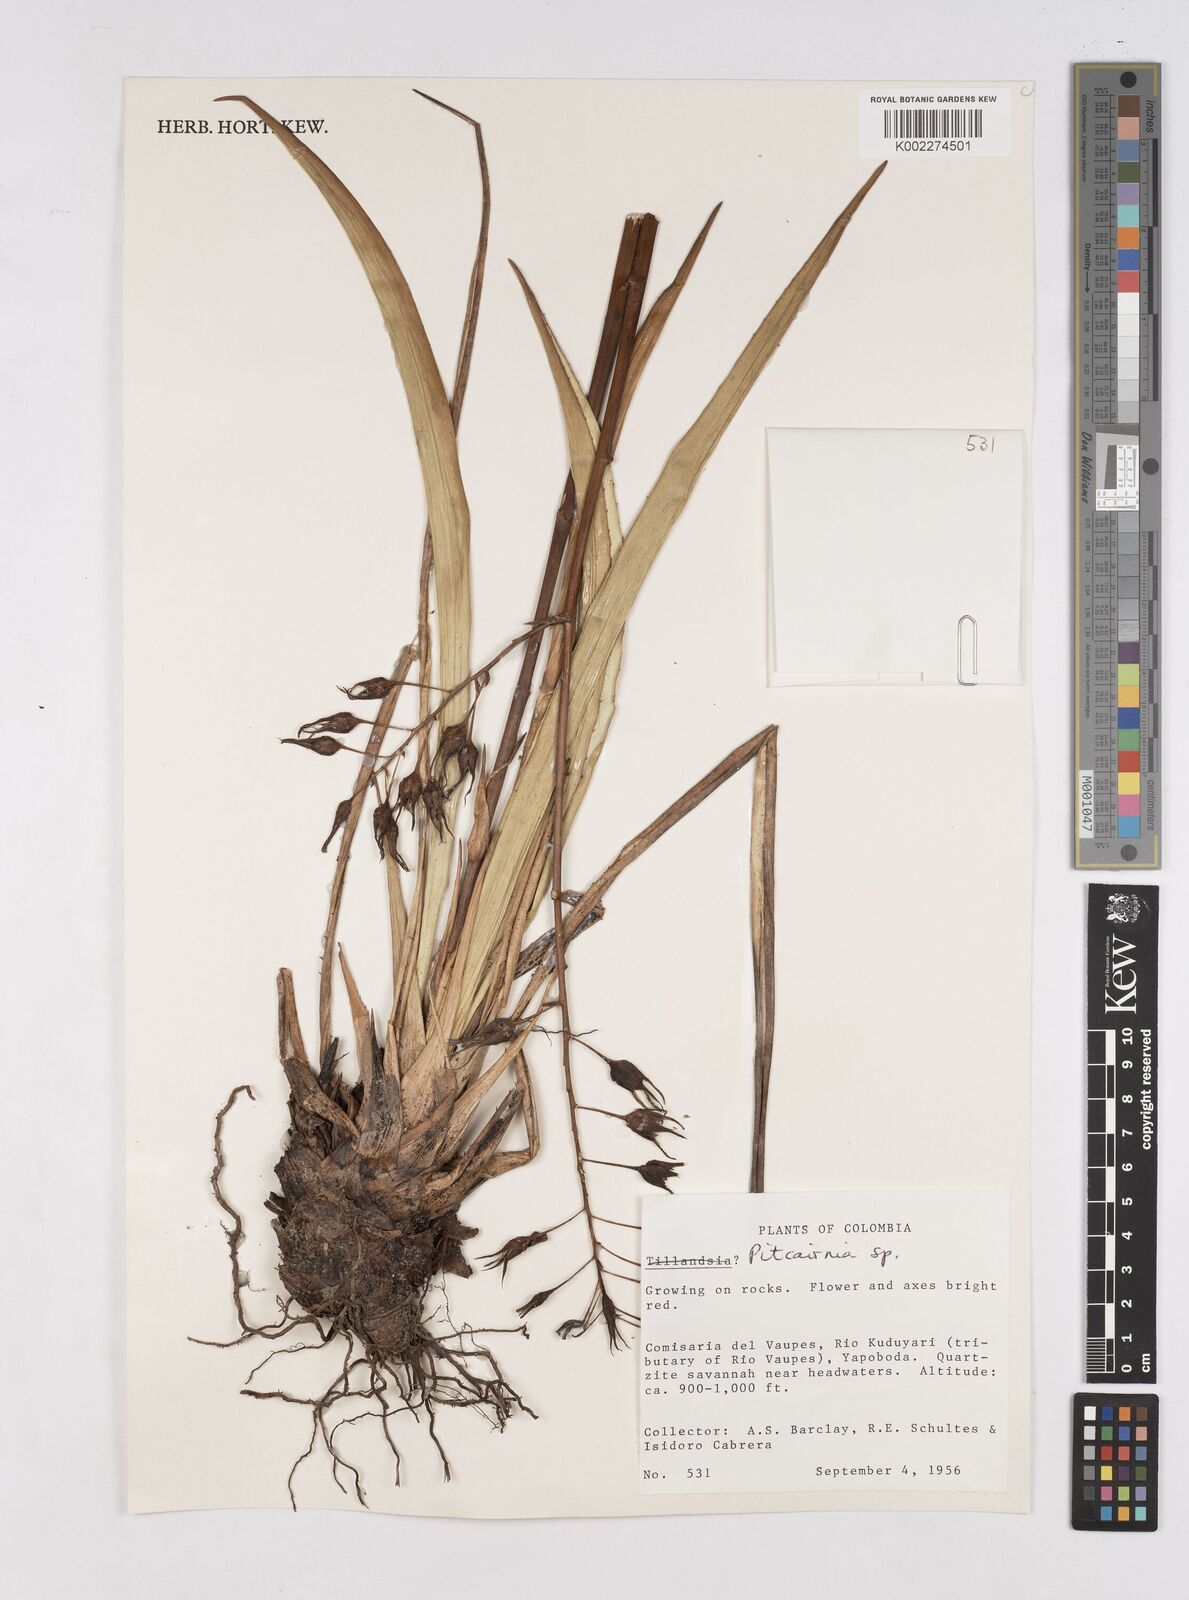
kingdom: Plantae
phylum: Tracheophyta
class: Liliopsida
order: Poales
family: Bromeliaceae
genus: Pitcairnia
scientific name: Pitcairnia
